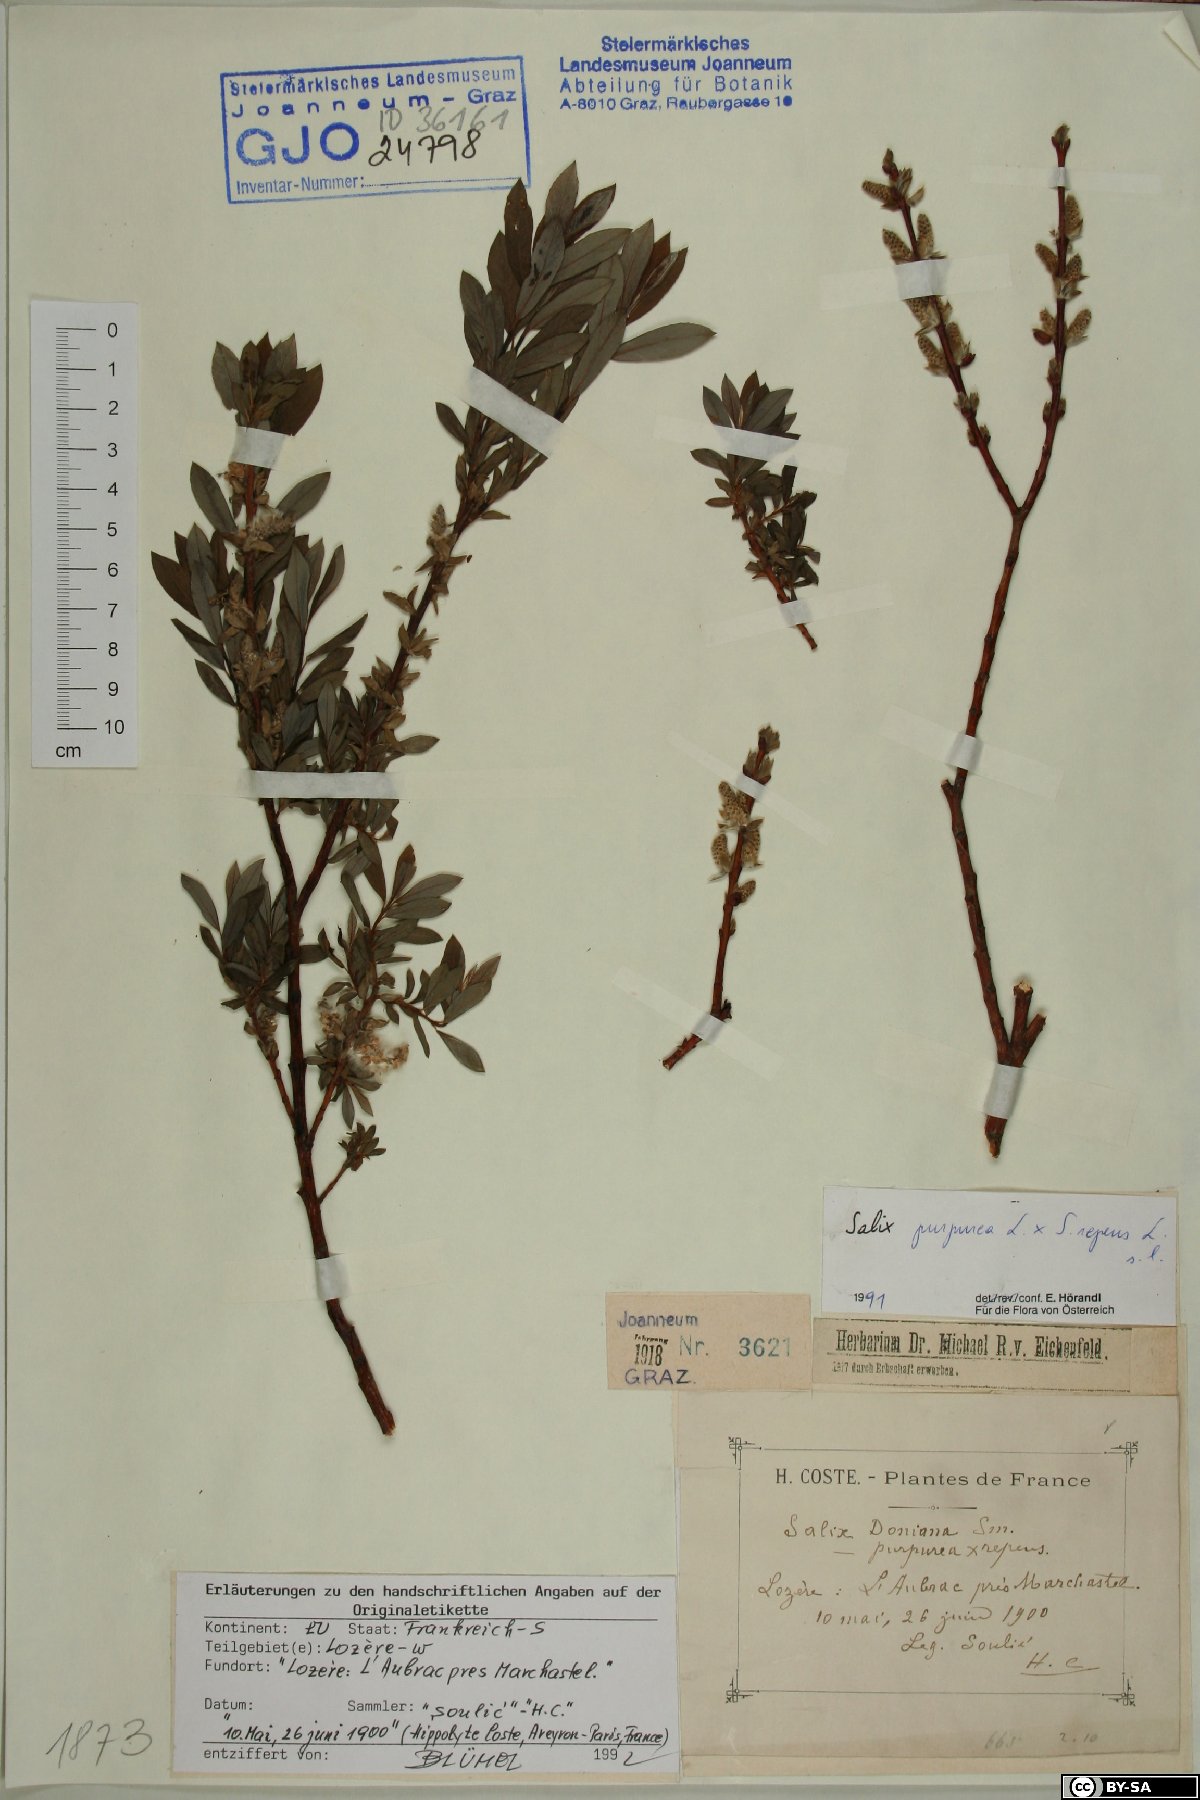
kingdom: Plantae
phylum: Tracheophyta
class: Magnoliopsida
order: Malpighiales
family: Salicaceae
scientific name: Salicaceae
